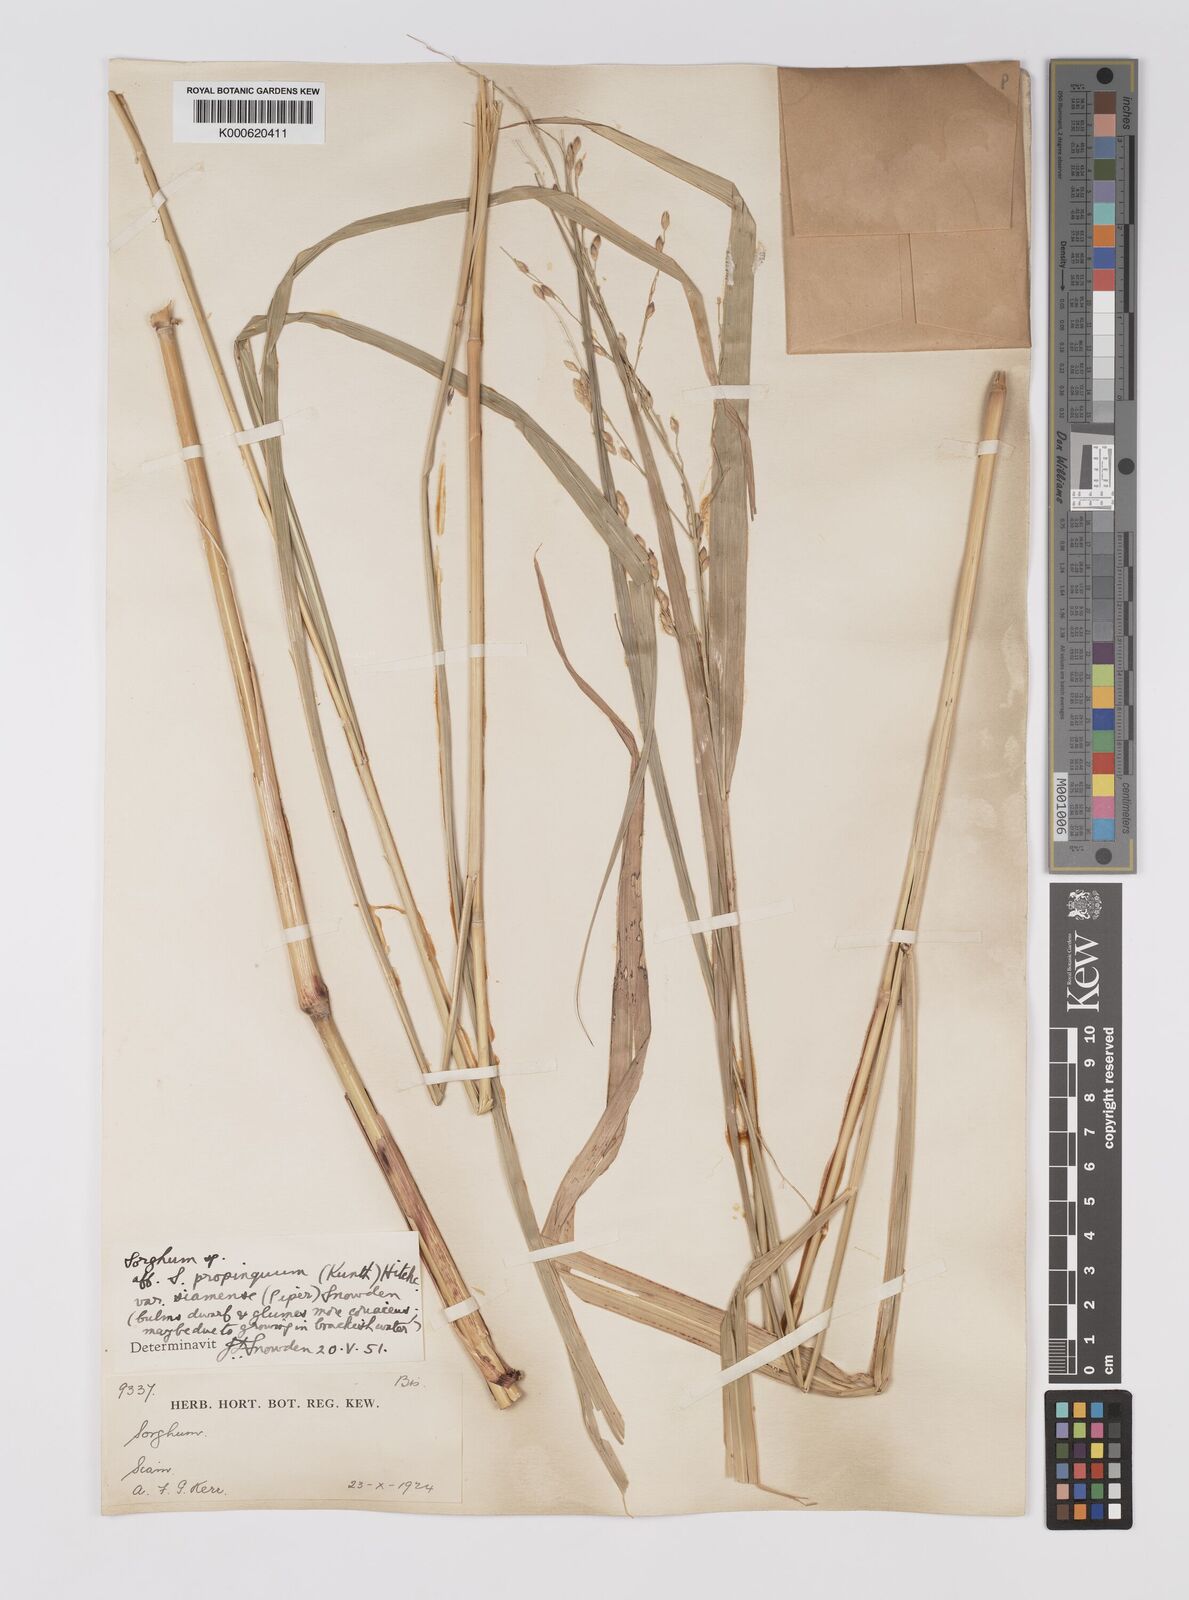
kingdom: Plantae
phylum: Tracheophyta
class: Liliopsida
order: Poales
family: Poaceae
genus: Sorghum
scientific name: Sorghum propinquum
